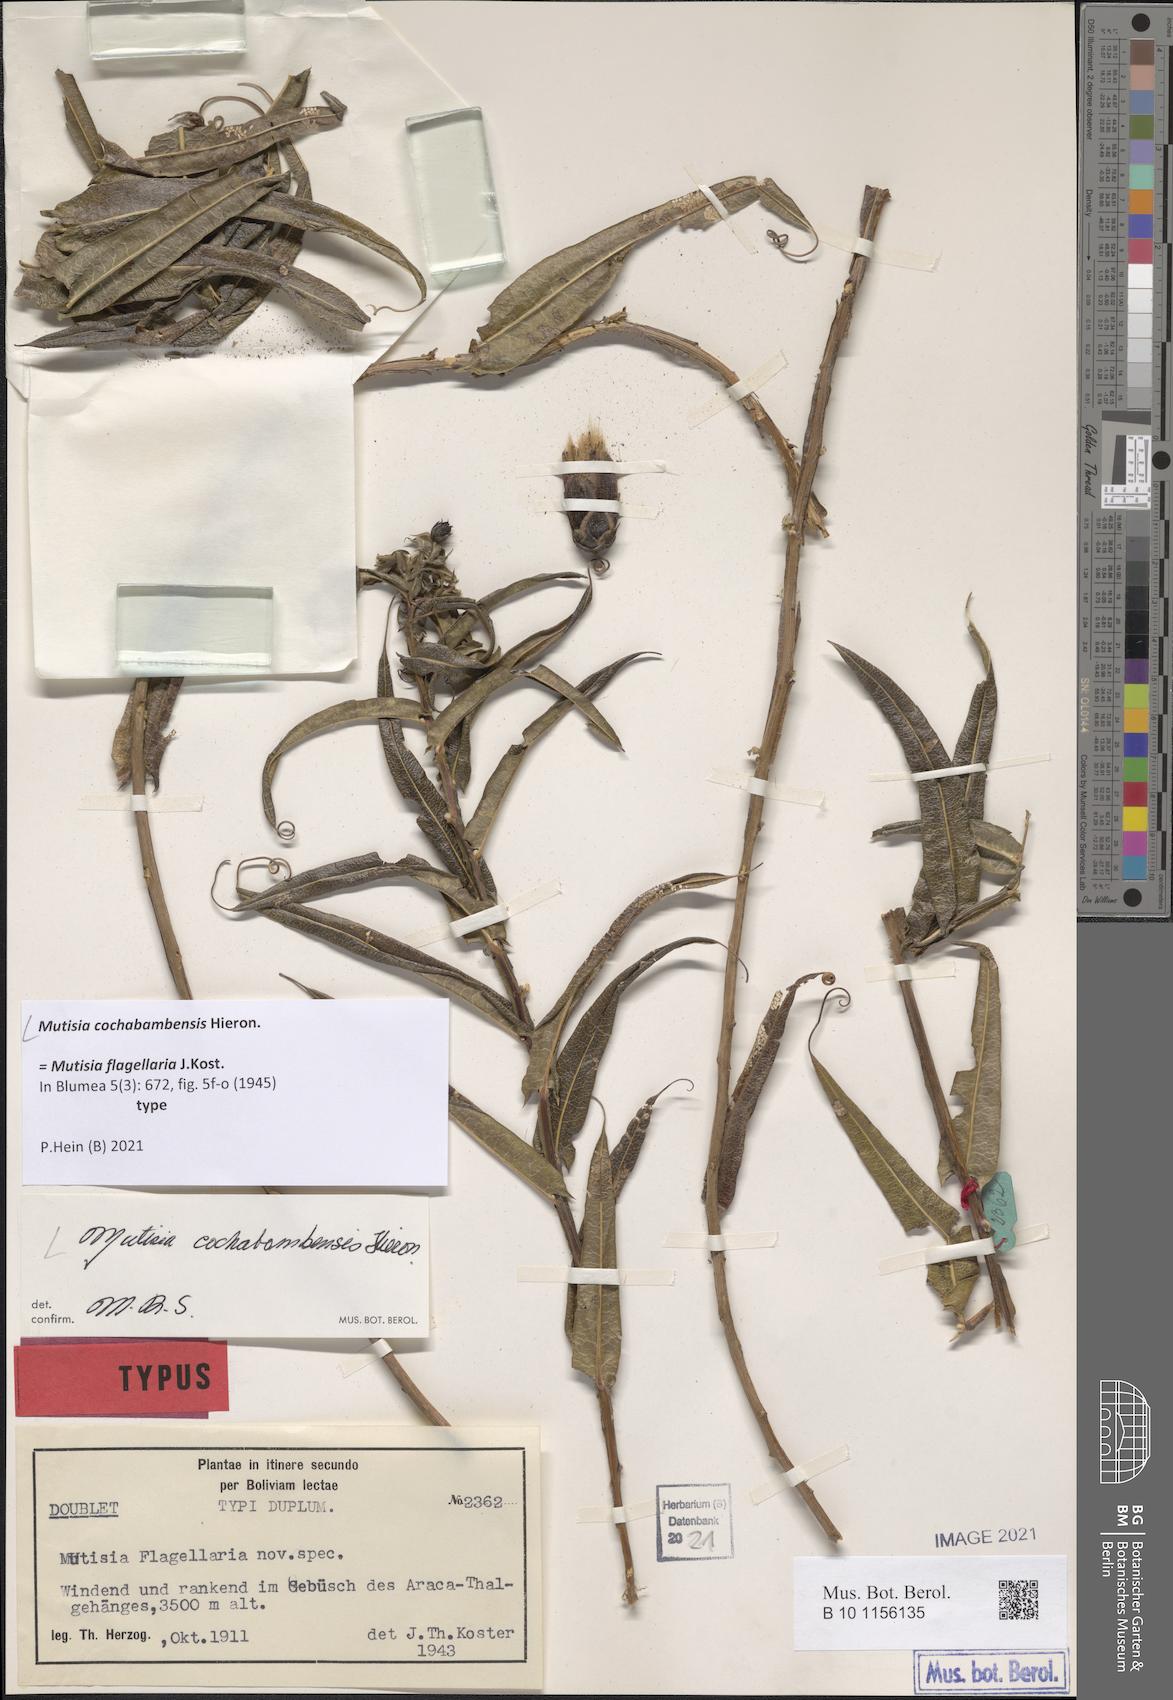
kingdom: Plantae
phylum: Tracheophyta
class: Magnoliopsida
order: Asterales
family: Asteraceae
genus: Mutisia
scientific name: Mutisia cochabambensis
